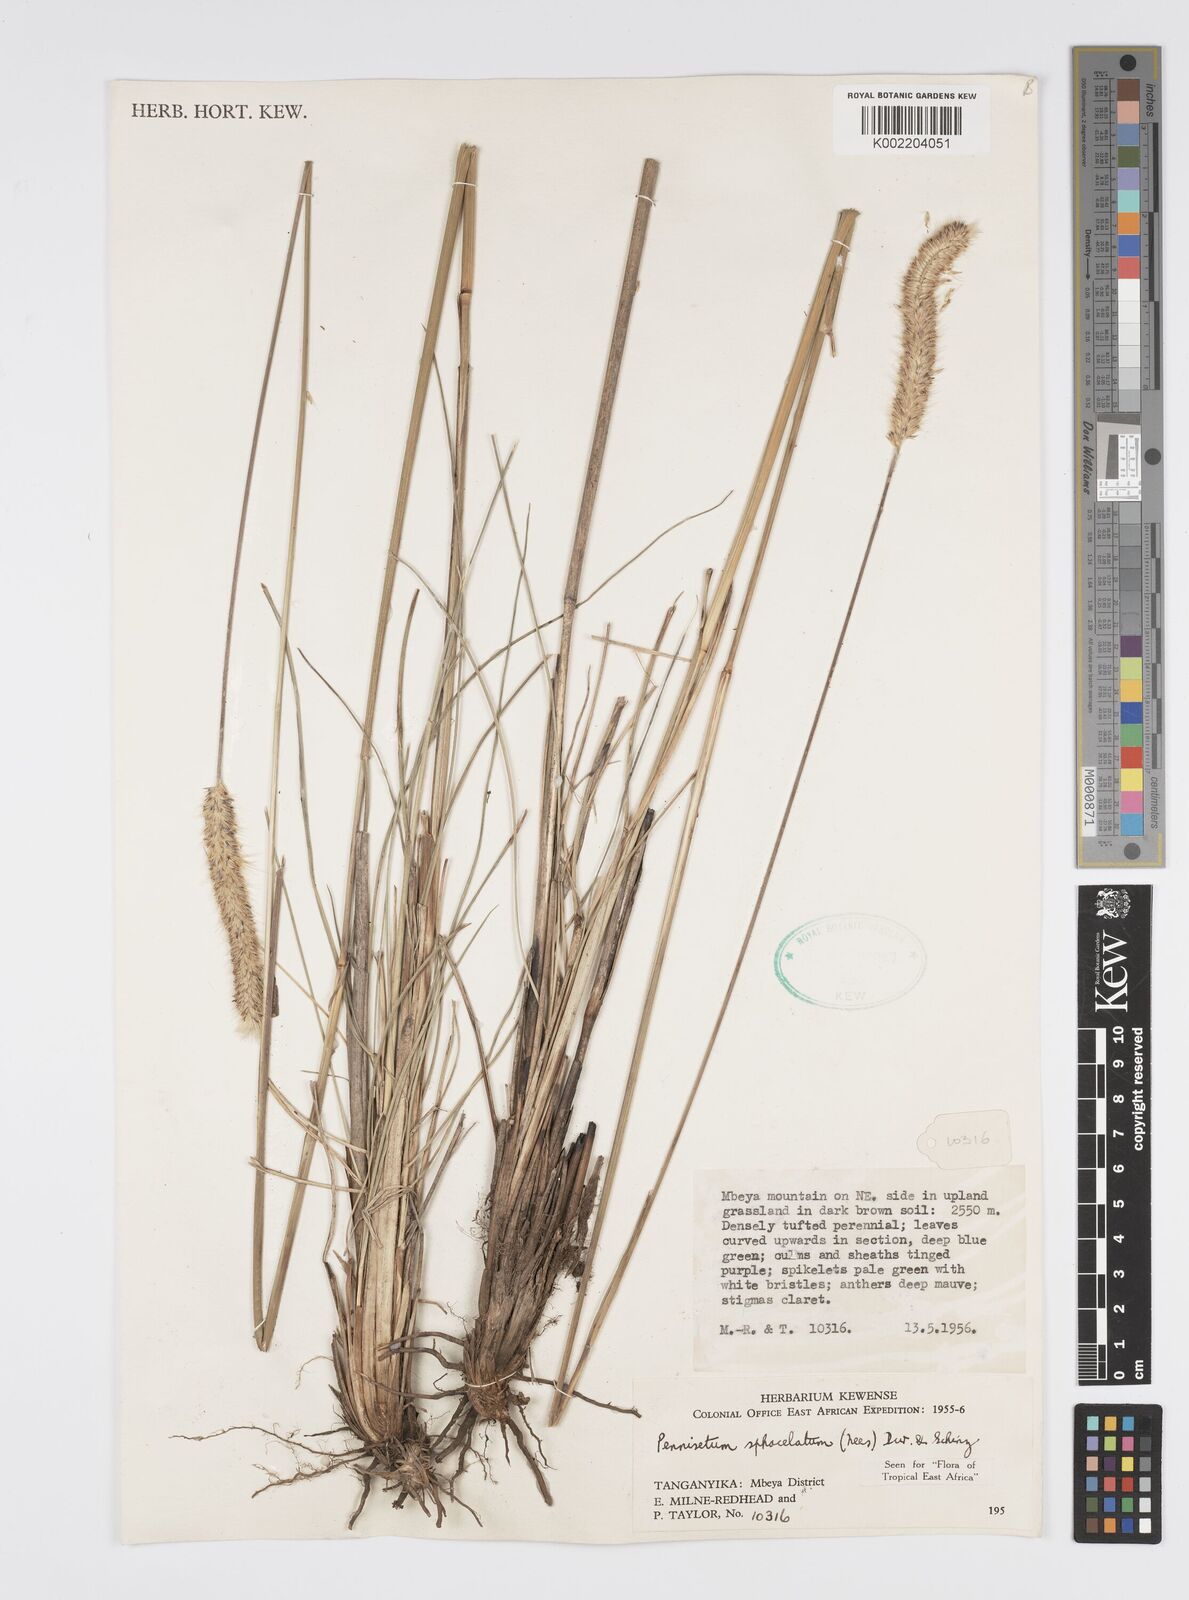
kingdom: Plantae
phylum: Tracheophyta
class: Liliopsida
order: Poales
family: Poaceae
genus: Cenchrus
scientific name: Cenchrus sphacelatus
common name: Bulgras
